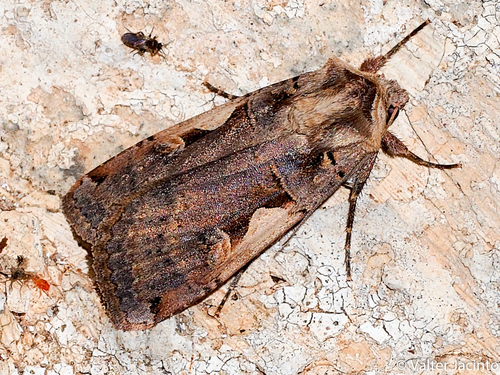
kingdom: Animalia
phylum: Arthropoda
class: Insecta
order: Lepidoptera
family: Noctuidae
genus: Xestia
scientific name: Xestia c-nigrum
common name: Setaceous hebrew character
